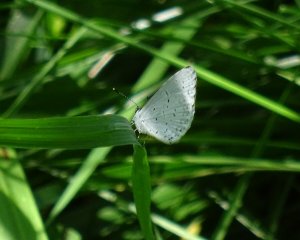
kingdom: Animalia
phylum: Arthropoda
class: Insecta
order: Lepidoptera
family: Lycaenidae
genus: Cyaniris
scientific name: Cyaniris neglecta
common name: Summer Azure
